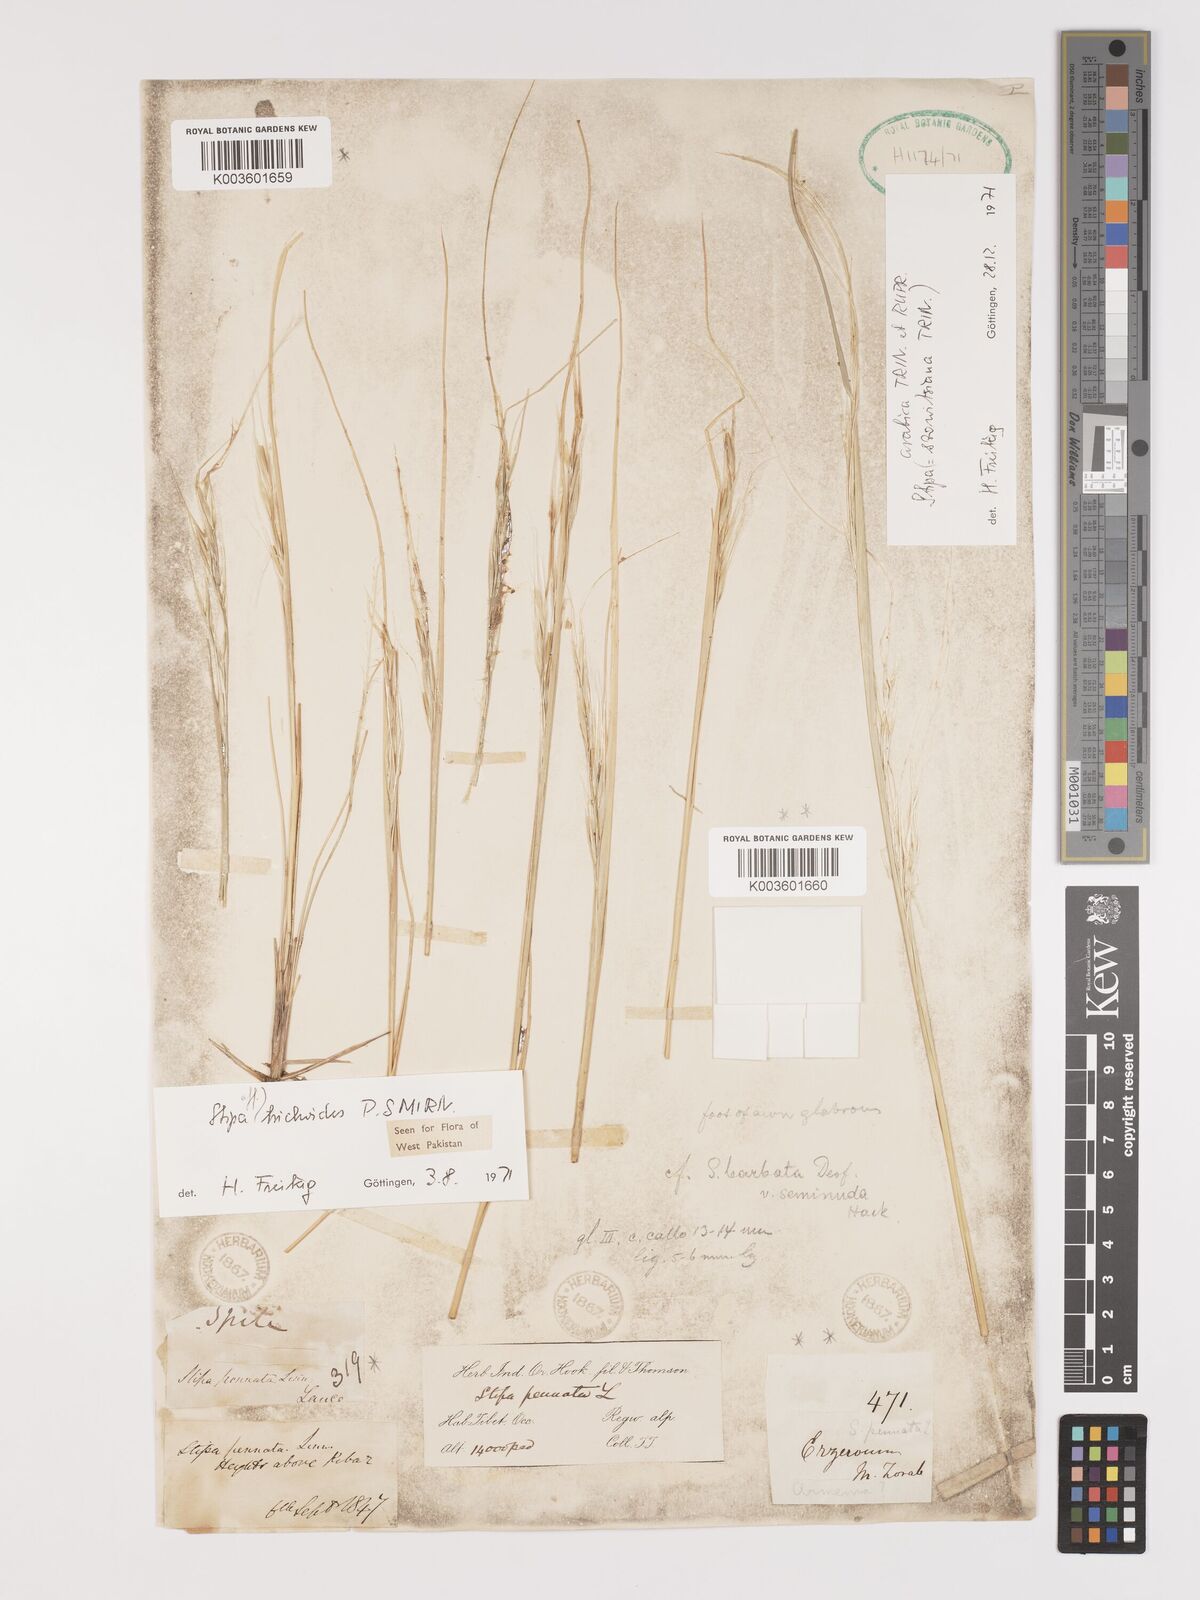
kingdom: Plantae
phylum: Tracheophyta
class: Liliopsida
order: Poales
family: Poaceae
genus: Stipa
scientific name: Stipa turkestanica
